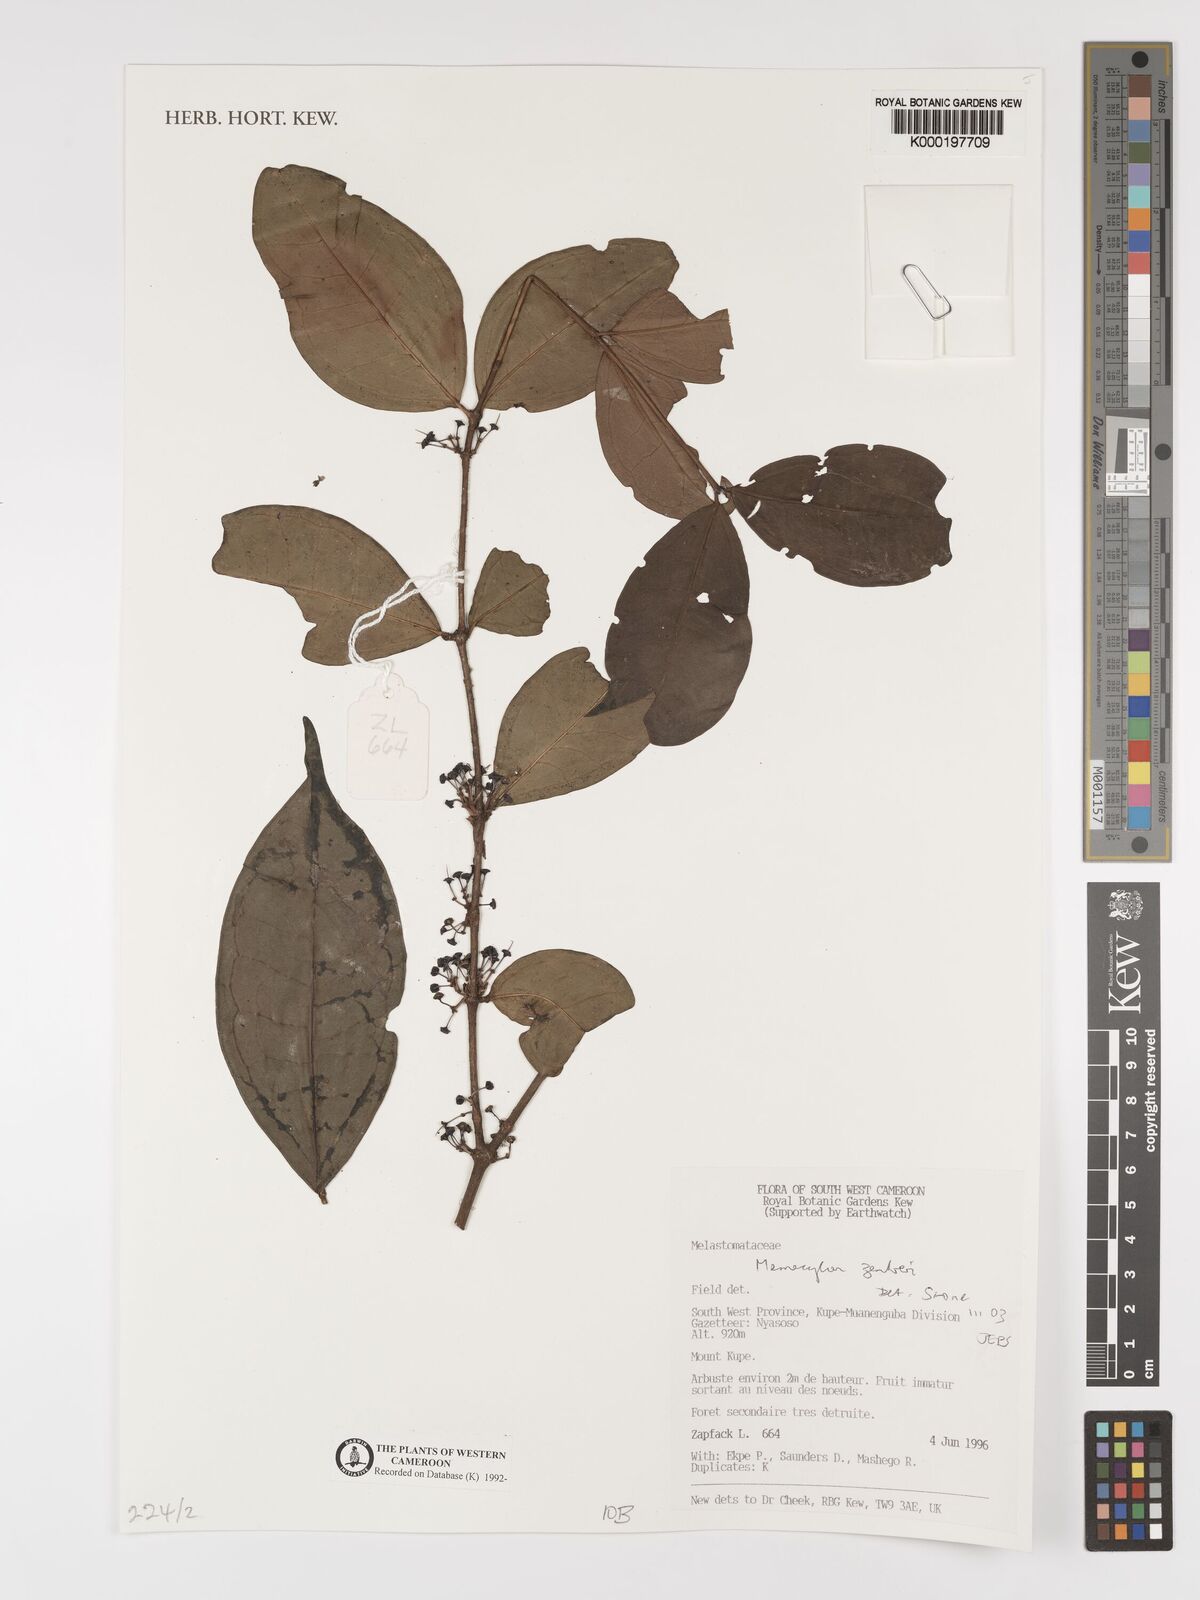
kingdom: Plantae
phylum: Tracheophyta
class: Magnoliopsida
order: Myrtales
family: Melastomataceae
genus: Memecylon
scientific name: Memecylon zenkeri
